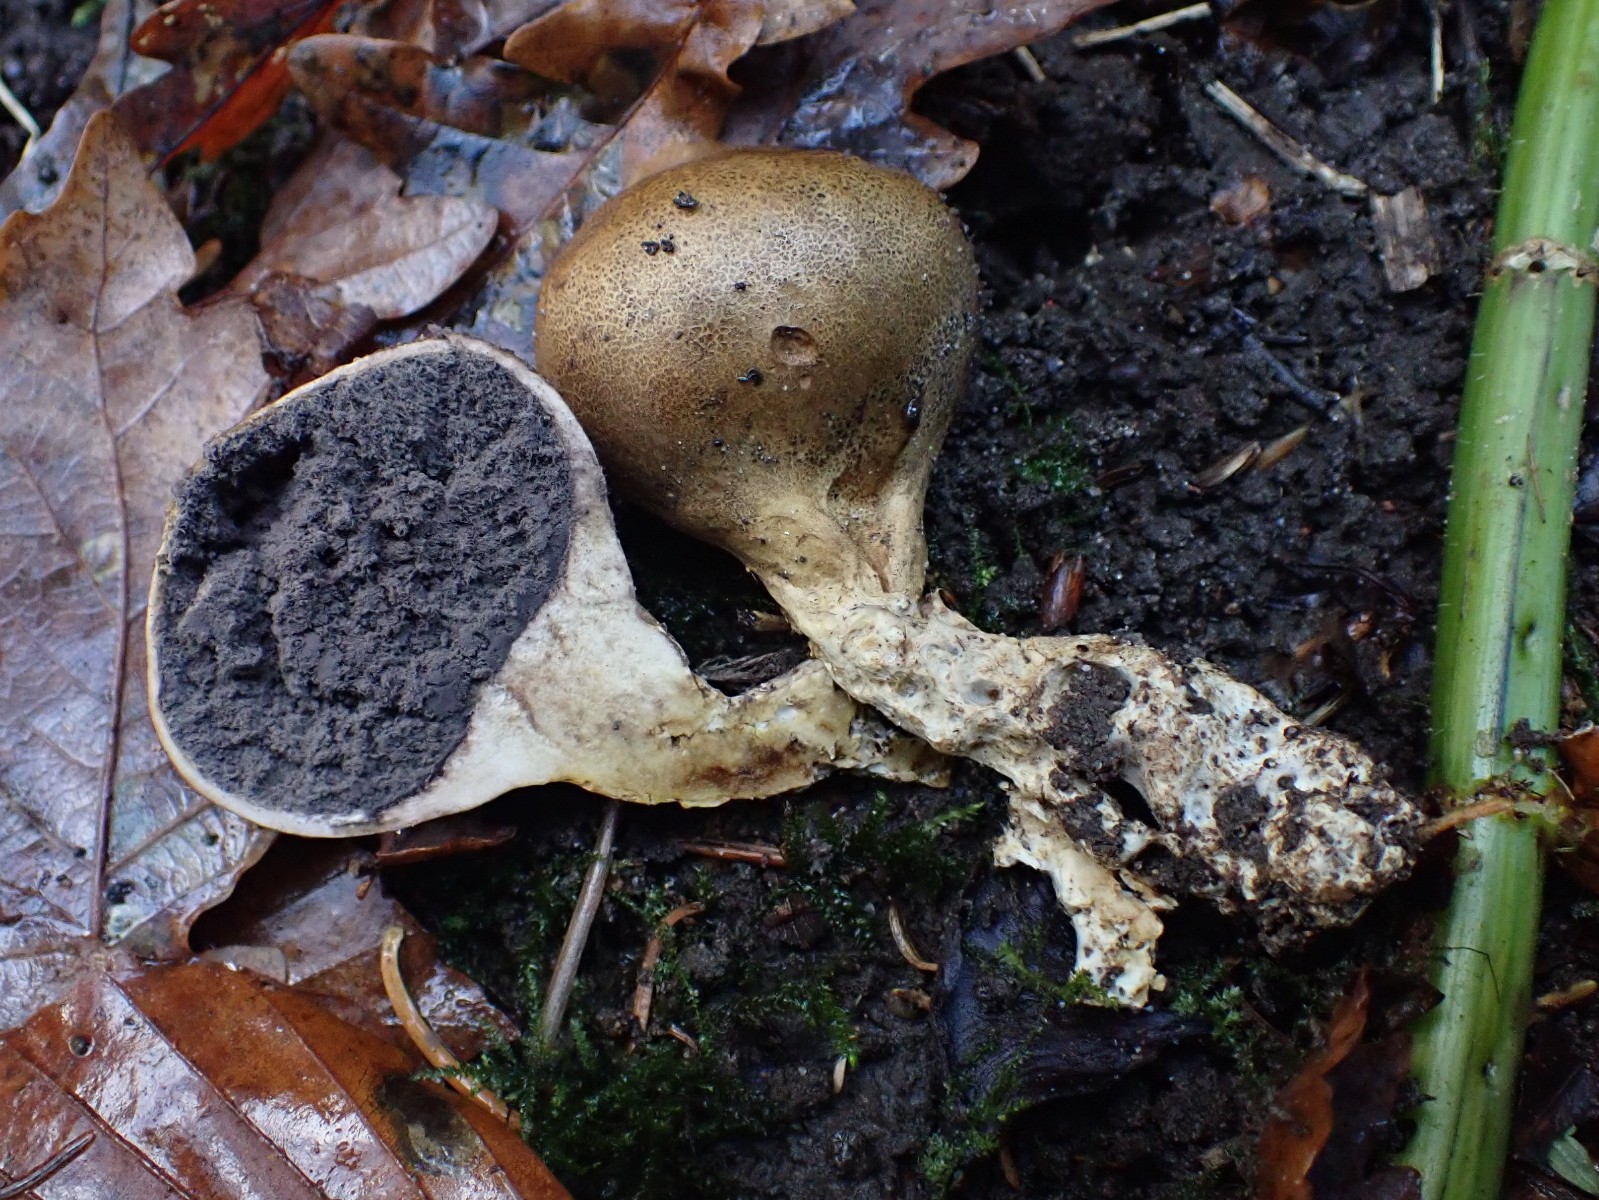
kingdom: Fungi
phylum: Basidiomycota
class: Agaricomycetes
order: Boletales
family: Sclerodermataceae
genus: Scleroderma
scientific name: Scleroderma verrucosum
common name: stilket bruskbold
